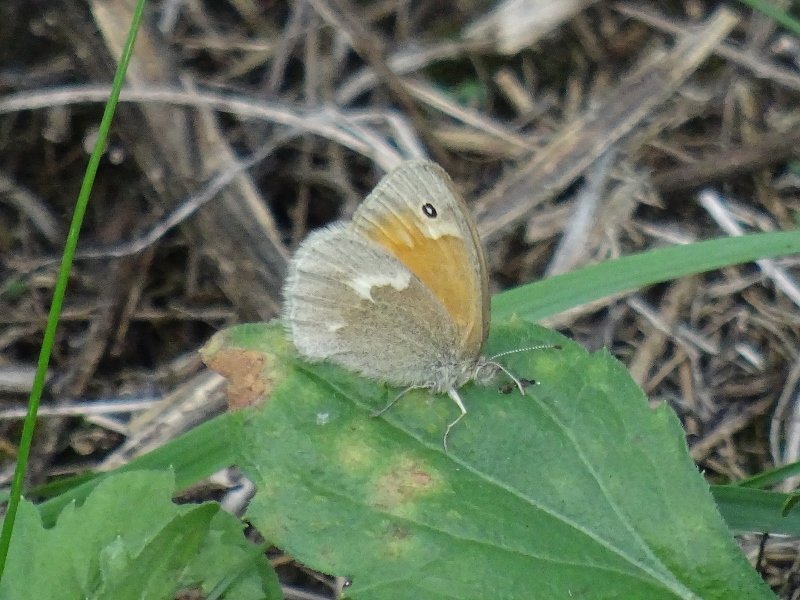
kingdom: Animalia
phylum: Arthropoda
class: Insecta
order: Lepidoptera
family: Nymphalidae
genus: Coenonympha
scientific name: Coenonympha tullia
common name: Large Heath
